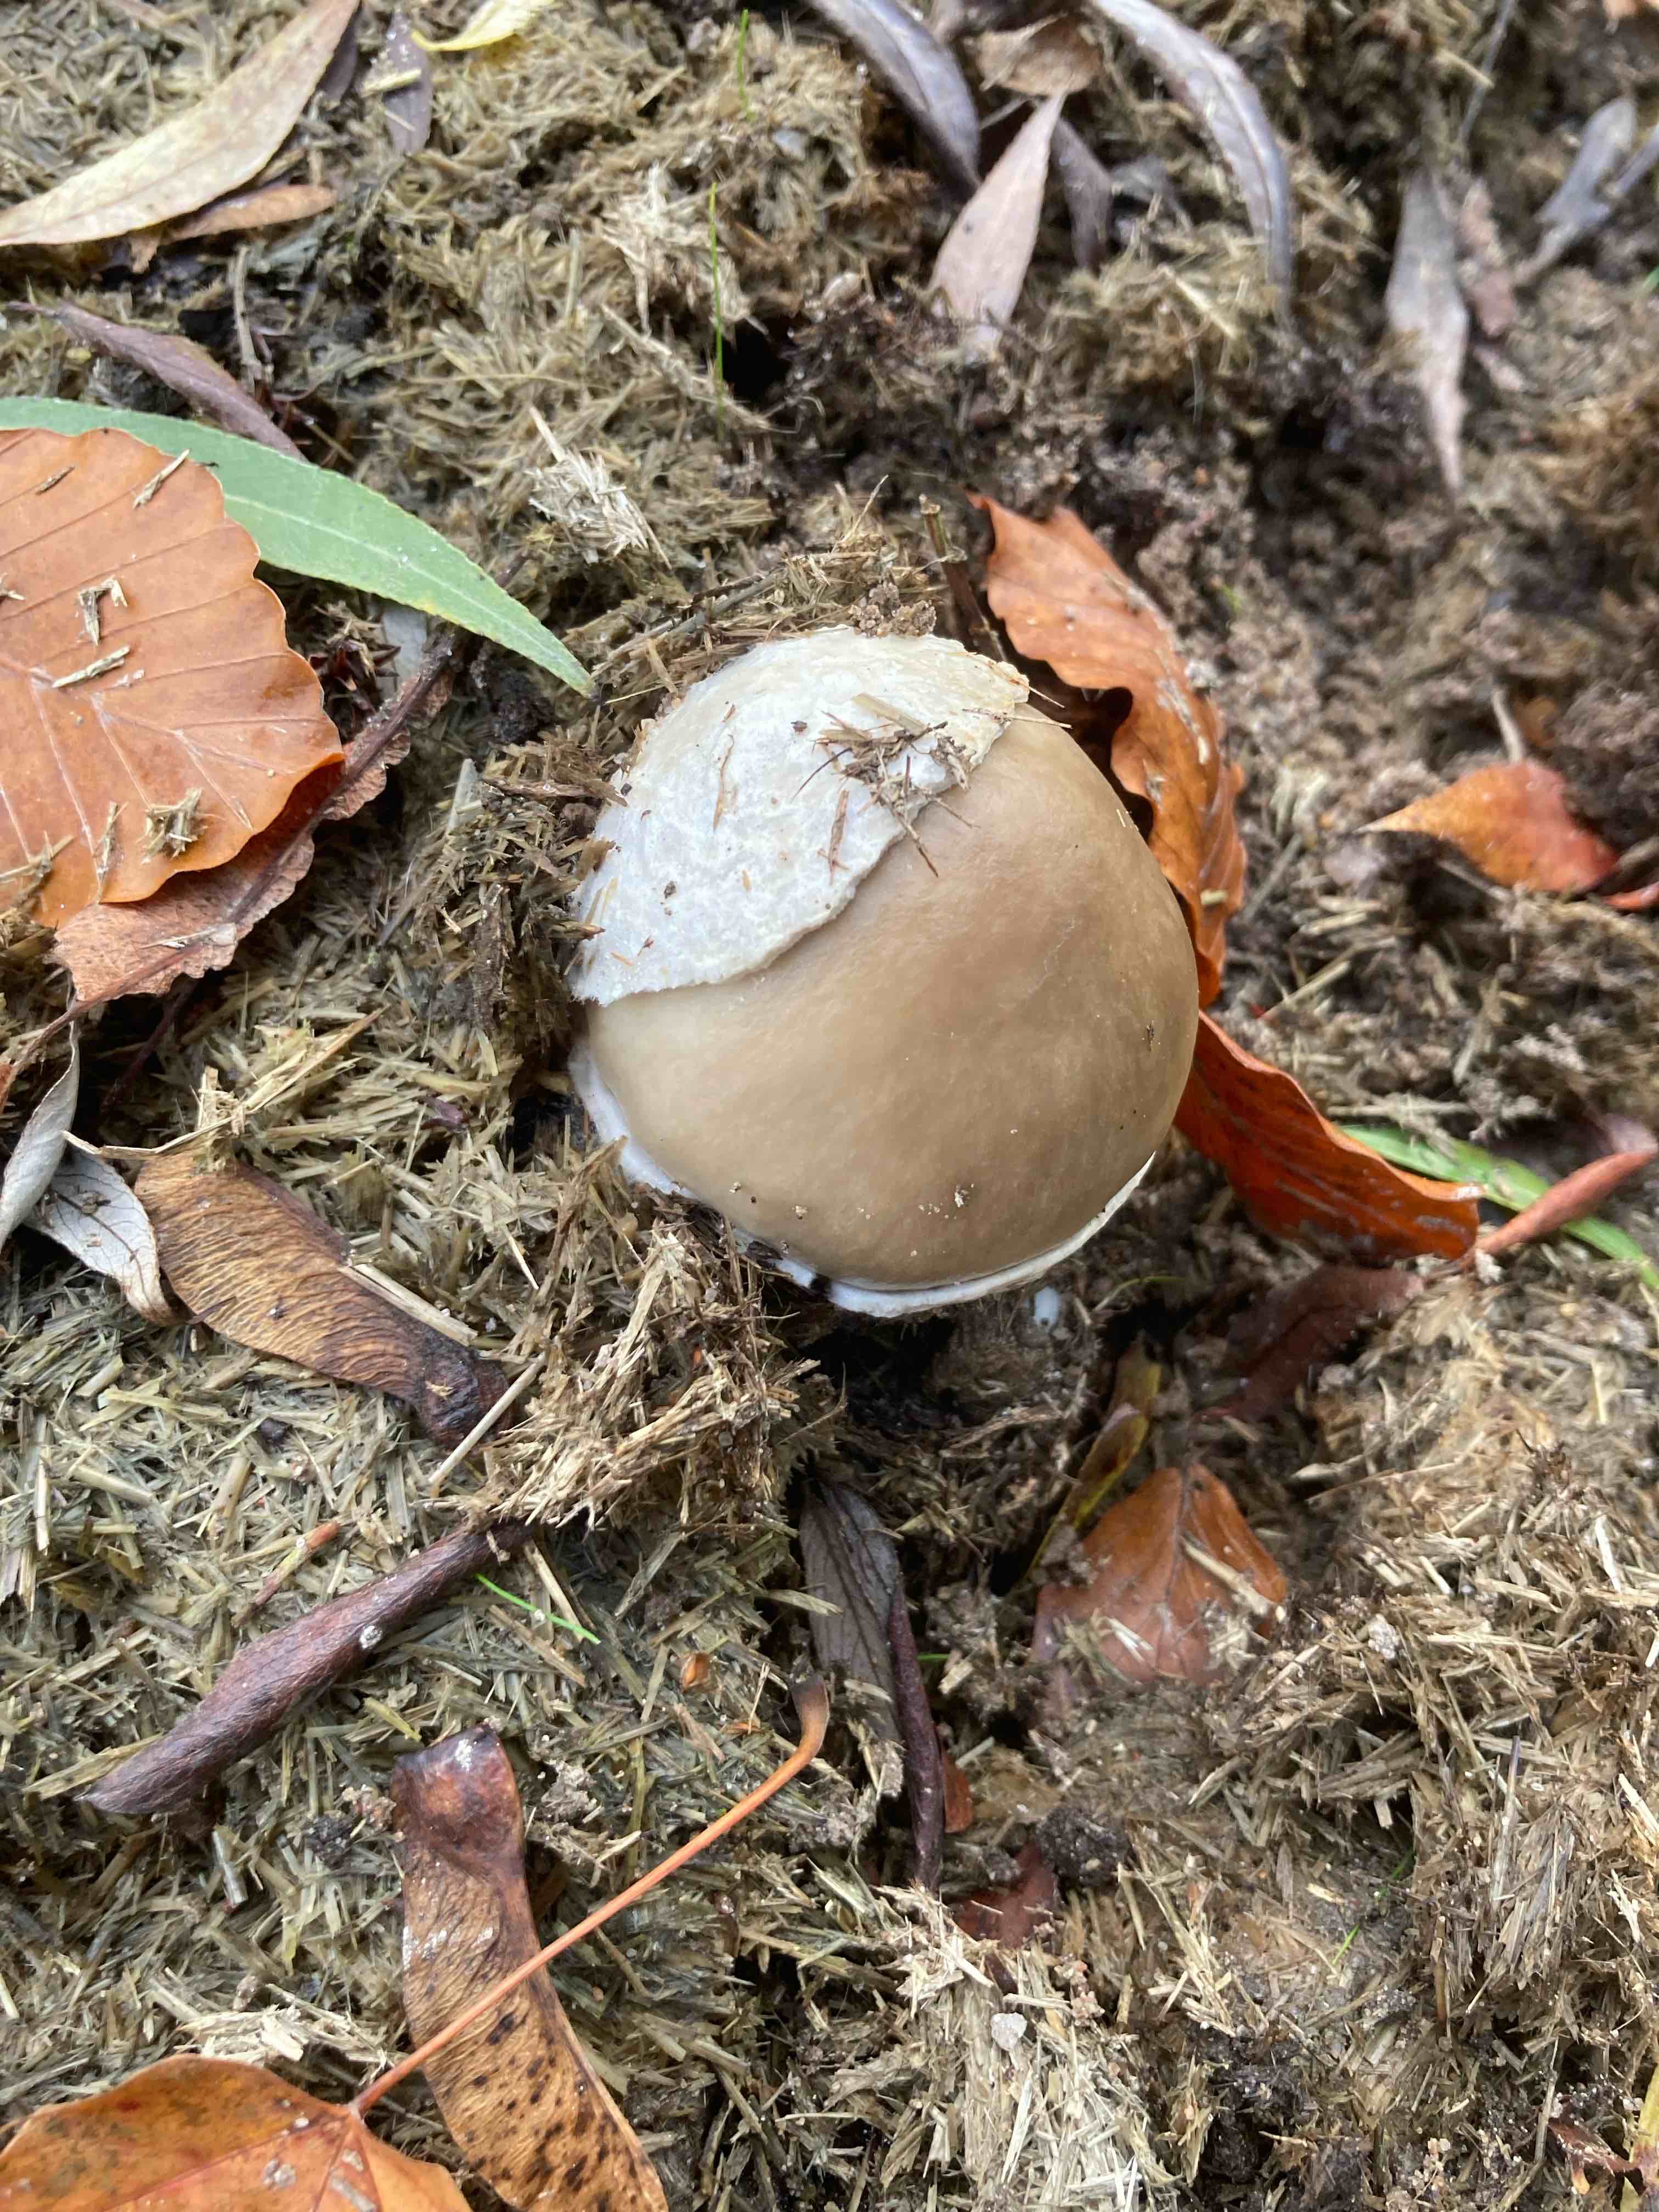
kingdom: Fungi
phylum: Basidiomycota
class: Agaricomycetes
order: Agaricales
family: Pluteaceae
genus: Volvopluteus
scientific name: Volvopluteus gloiocephalus
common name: høj posesvamp
